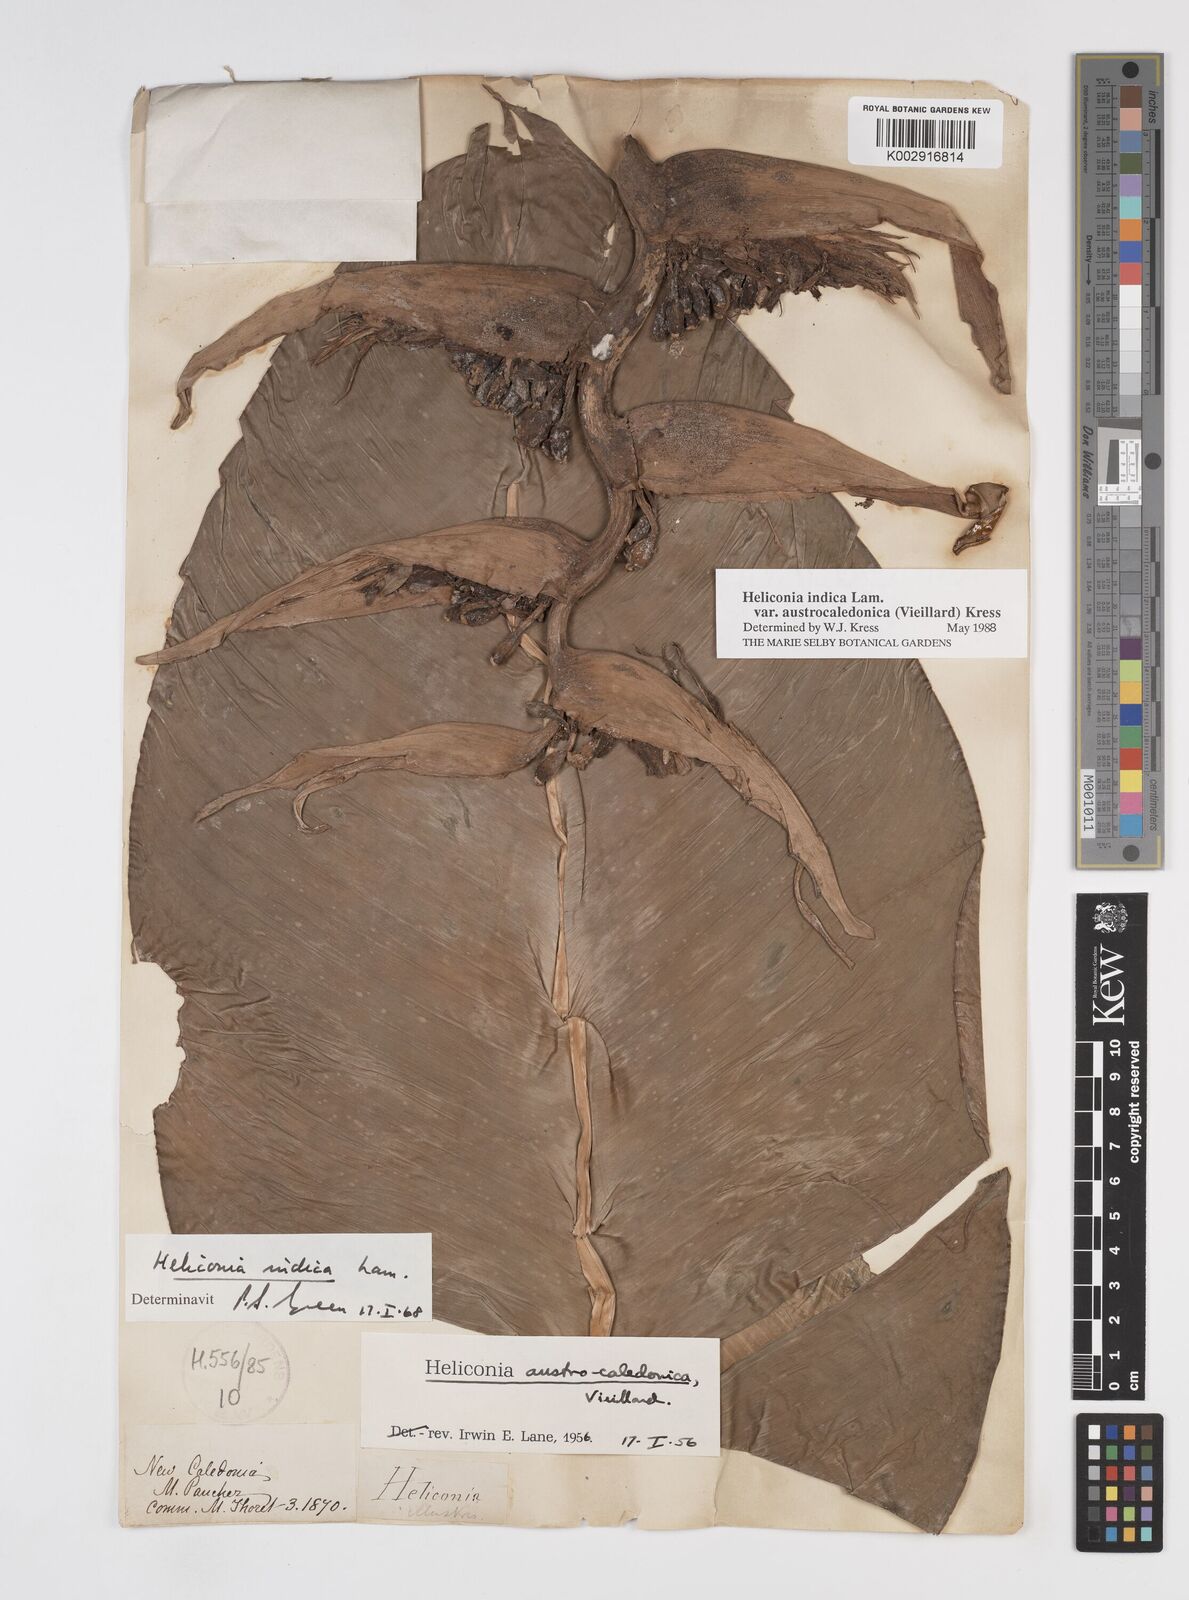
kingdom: Plantae
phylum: Tracheophyta
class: Liliopsida
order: Zingiberales
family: Heliconiaceae
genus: Heliconia
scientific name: Heliconia indica
